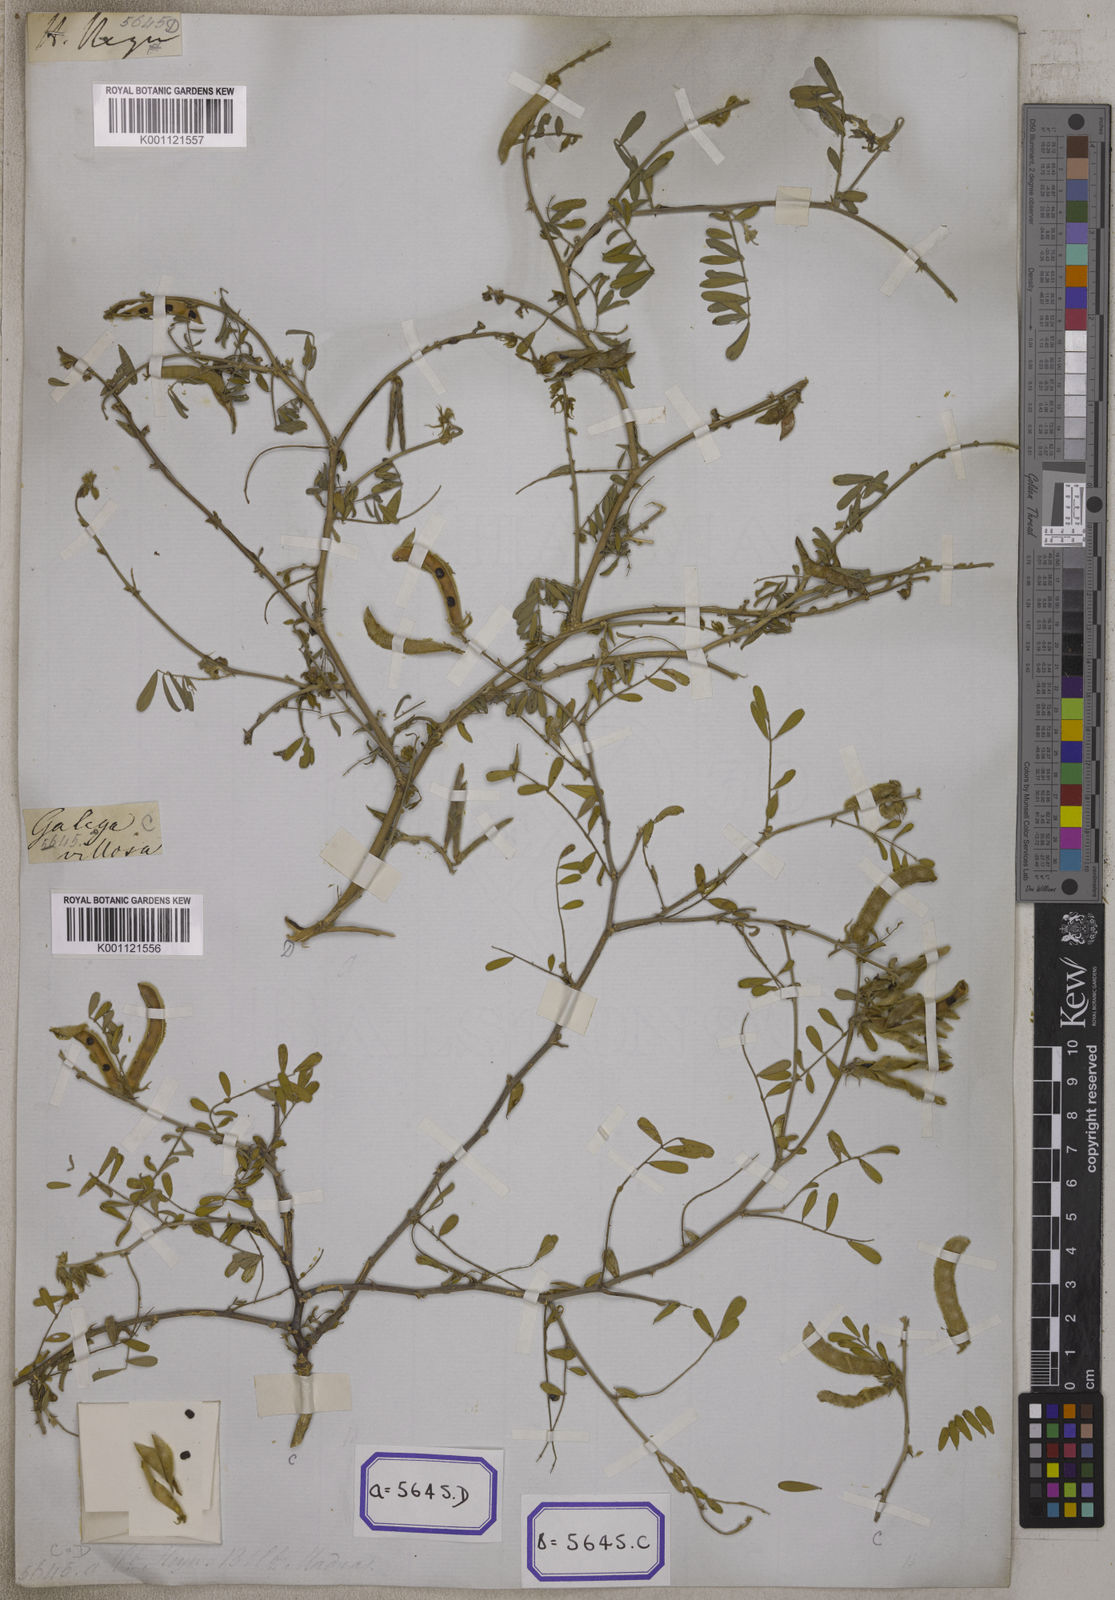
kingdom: Plantae
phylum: Tracheophyta
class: Magnoliopsida
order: Fabales
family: Fabaceae
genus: Tephrosia
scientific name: Tephrosia villosa
